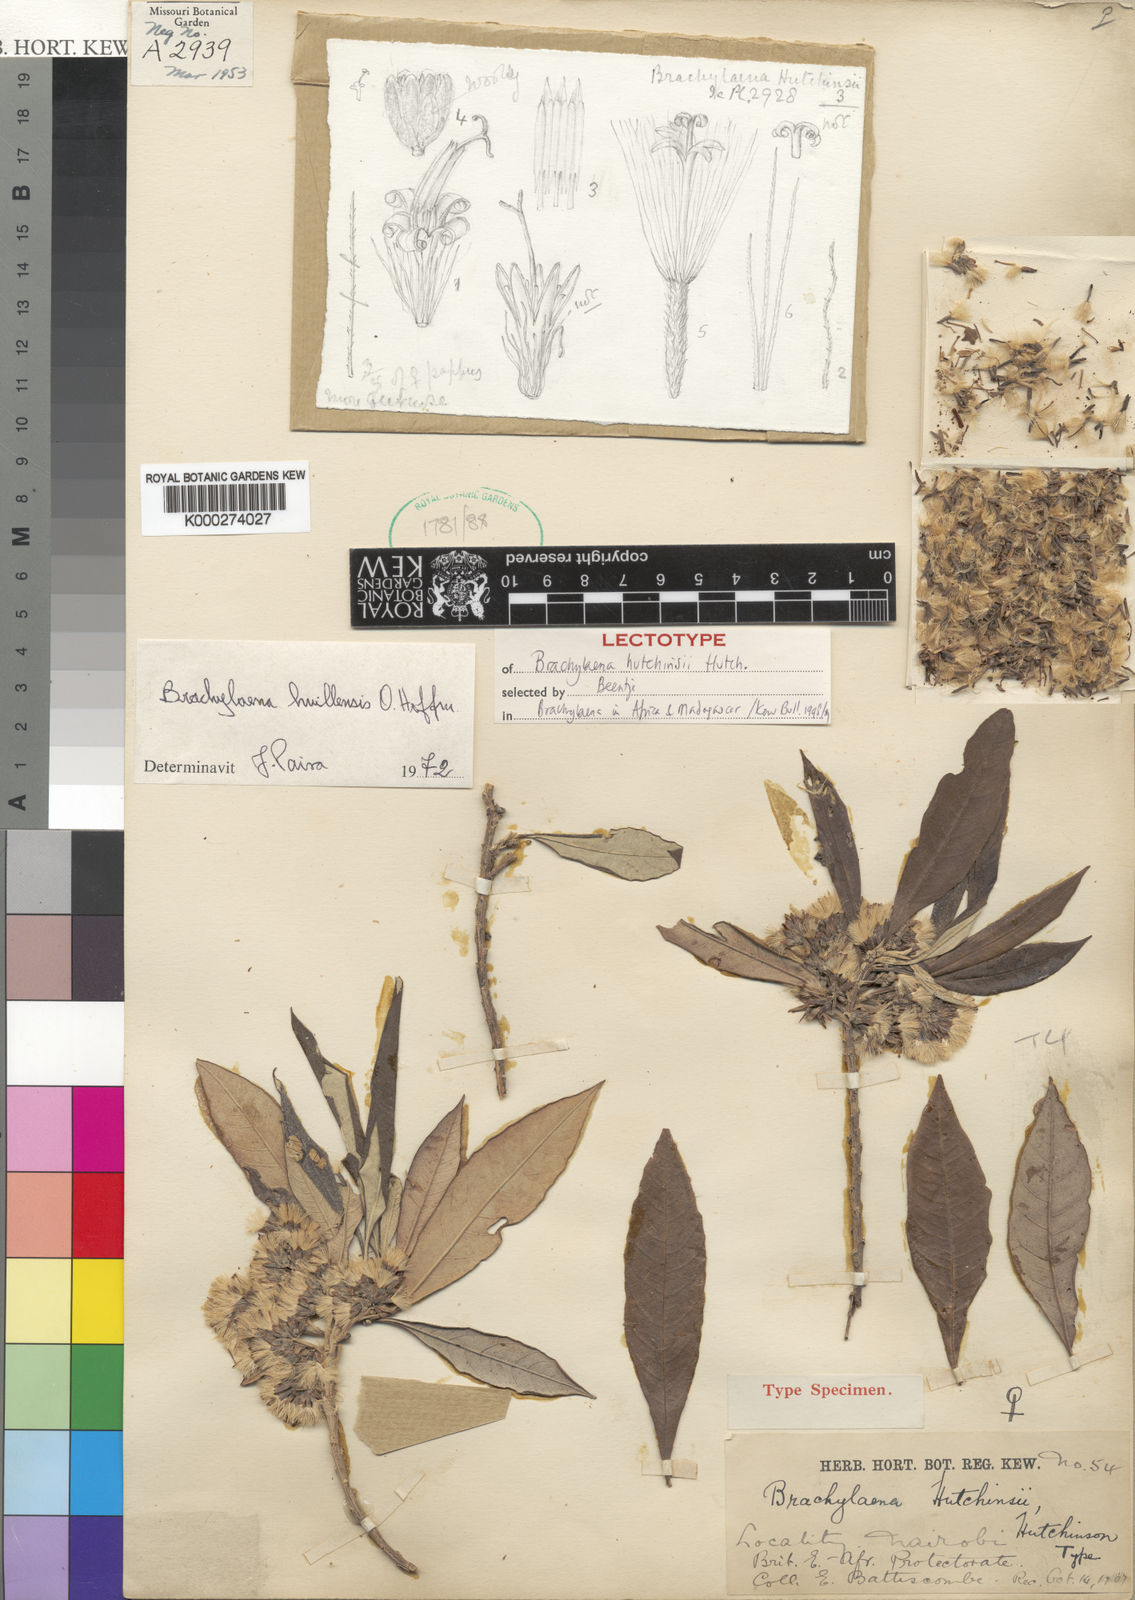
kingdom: Plantae
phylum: Tracheophyta
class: Magnoliopsida
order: Asterales
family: Asteraceae
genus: Brachylaena
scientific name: Brachylaena huillensis
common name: Silver-oak
